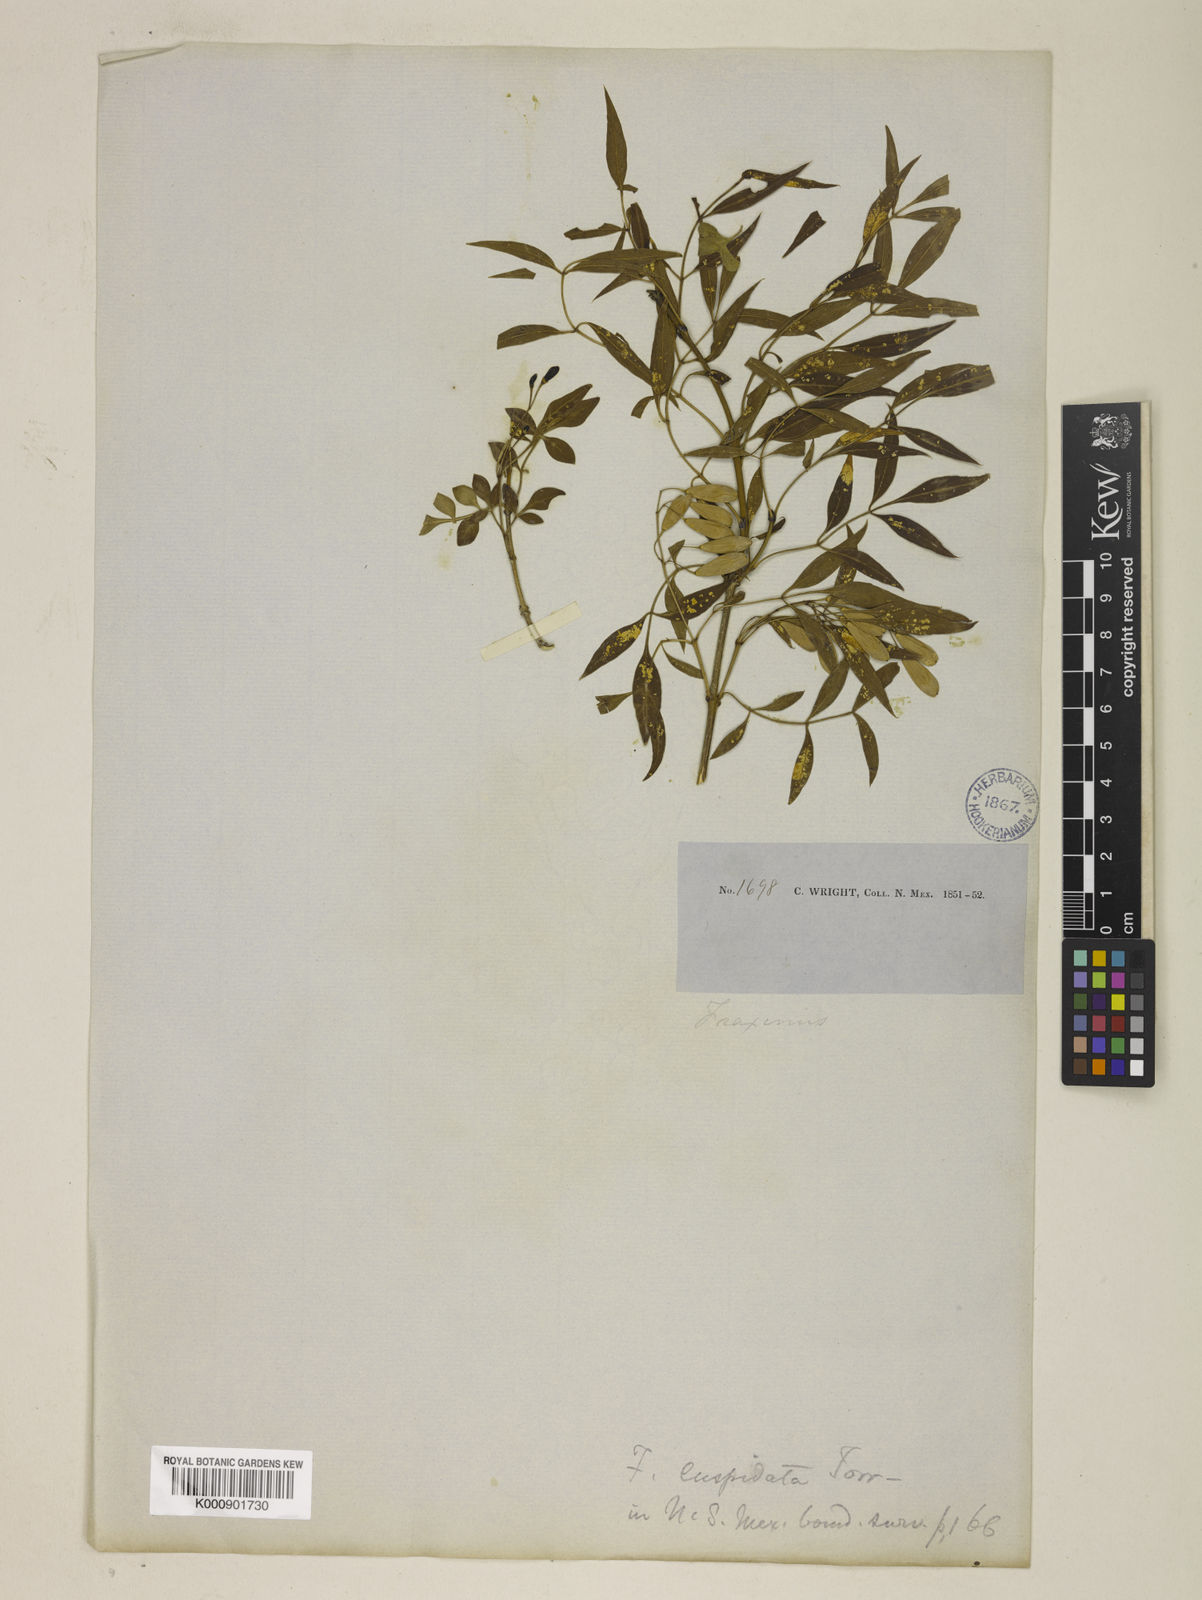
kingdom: Plantae
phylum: Tracheophyta
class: Magnoliopsida
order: Lamiales
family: Oleaceae
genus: Fraxinus
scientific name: Fraxinus cuspidata
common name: Fragrant ash
